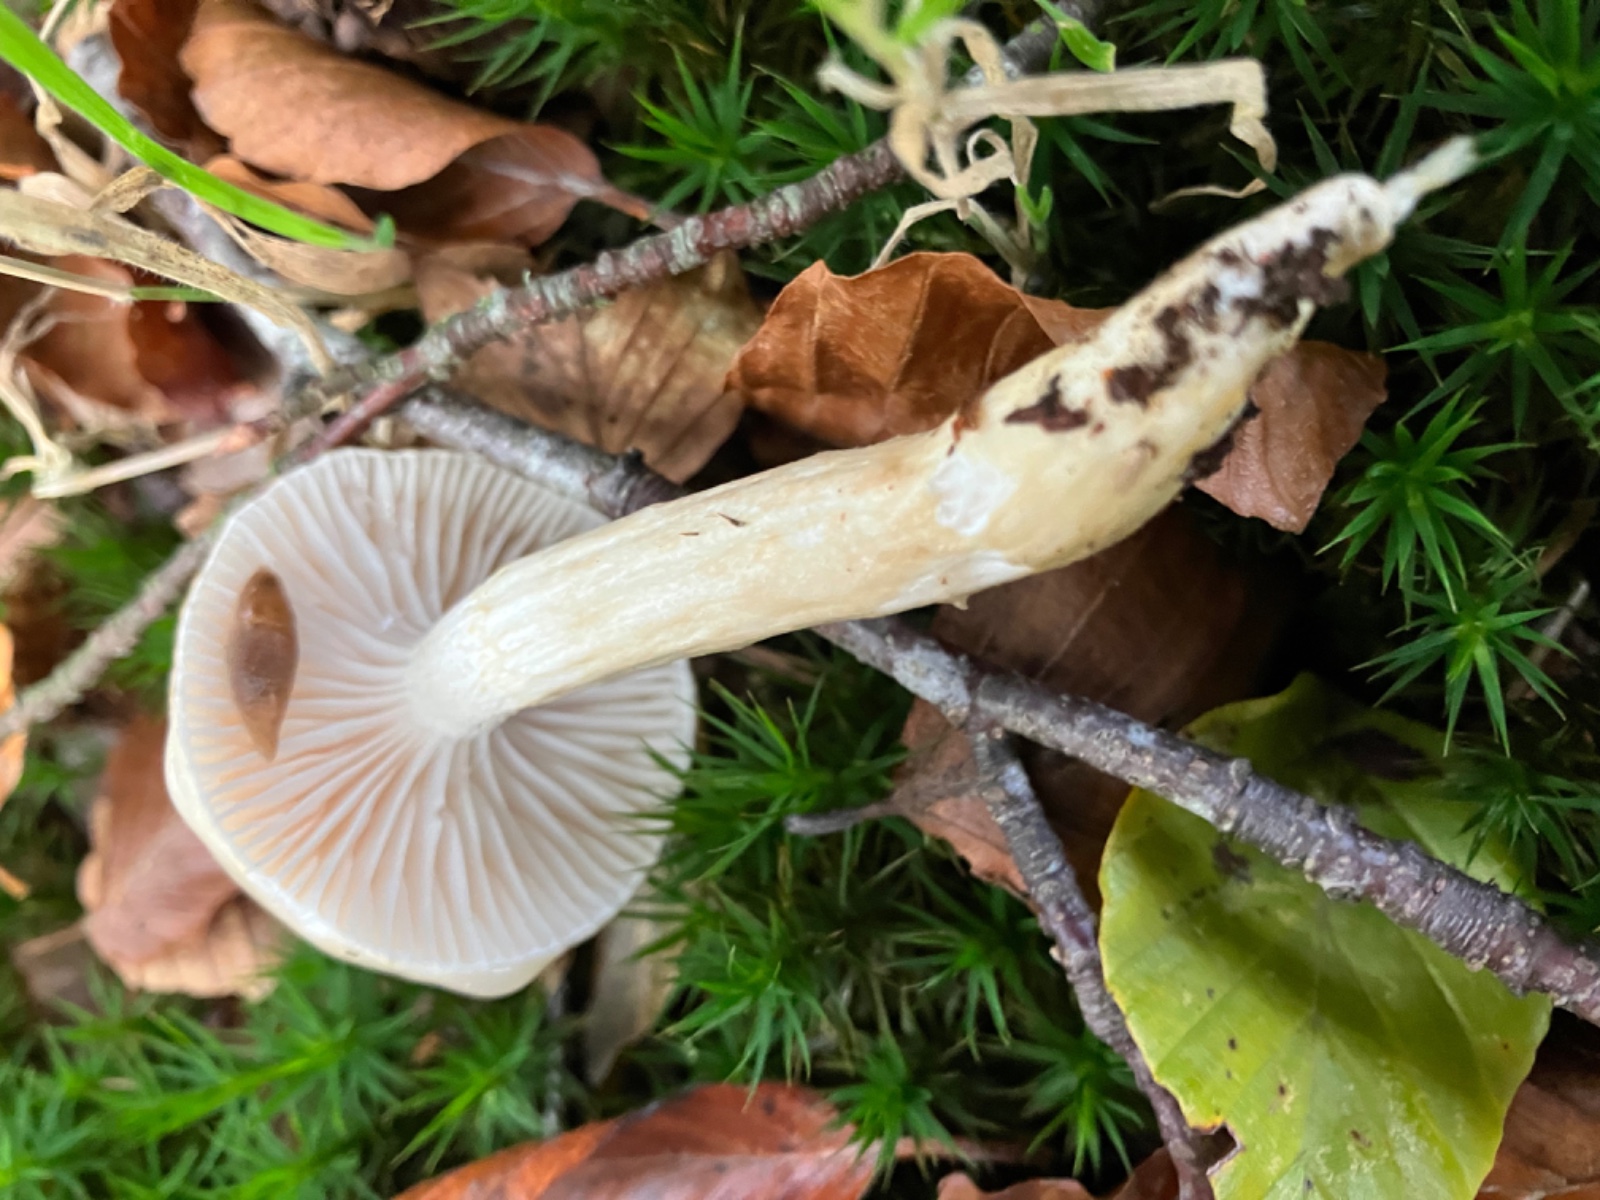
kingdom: Fungi
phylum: Basidiomycota
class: Agaricomycetes
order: Agaricales
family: Hygrophoraceae
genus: Hygrophorus
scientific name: Hygrophorus mesotephrus
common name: askegrå sneglehat
